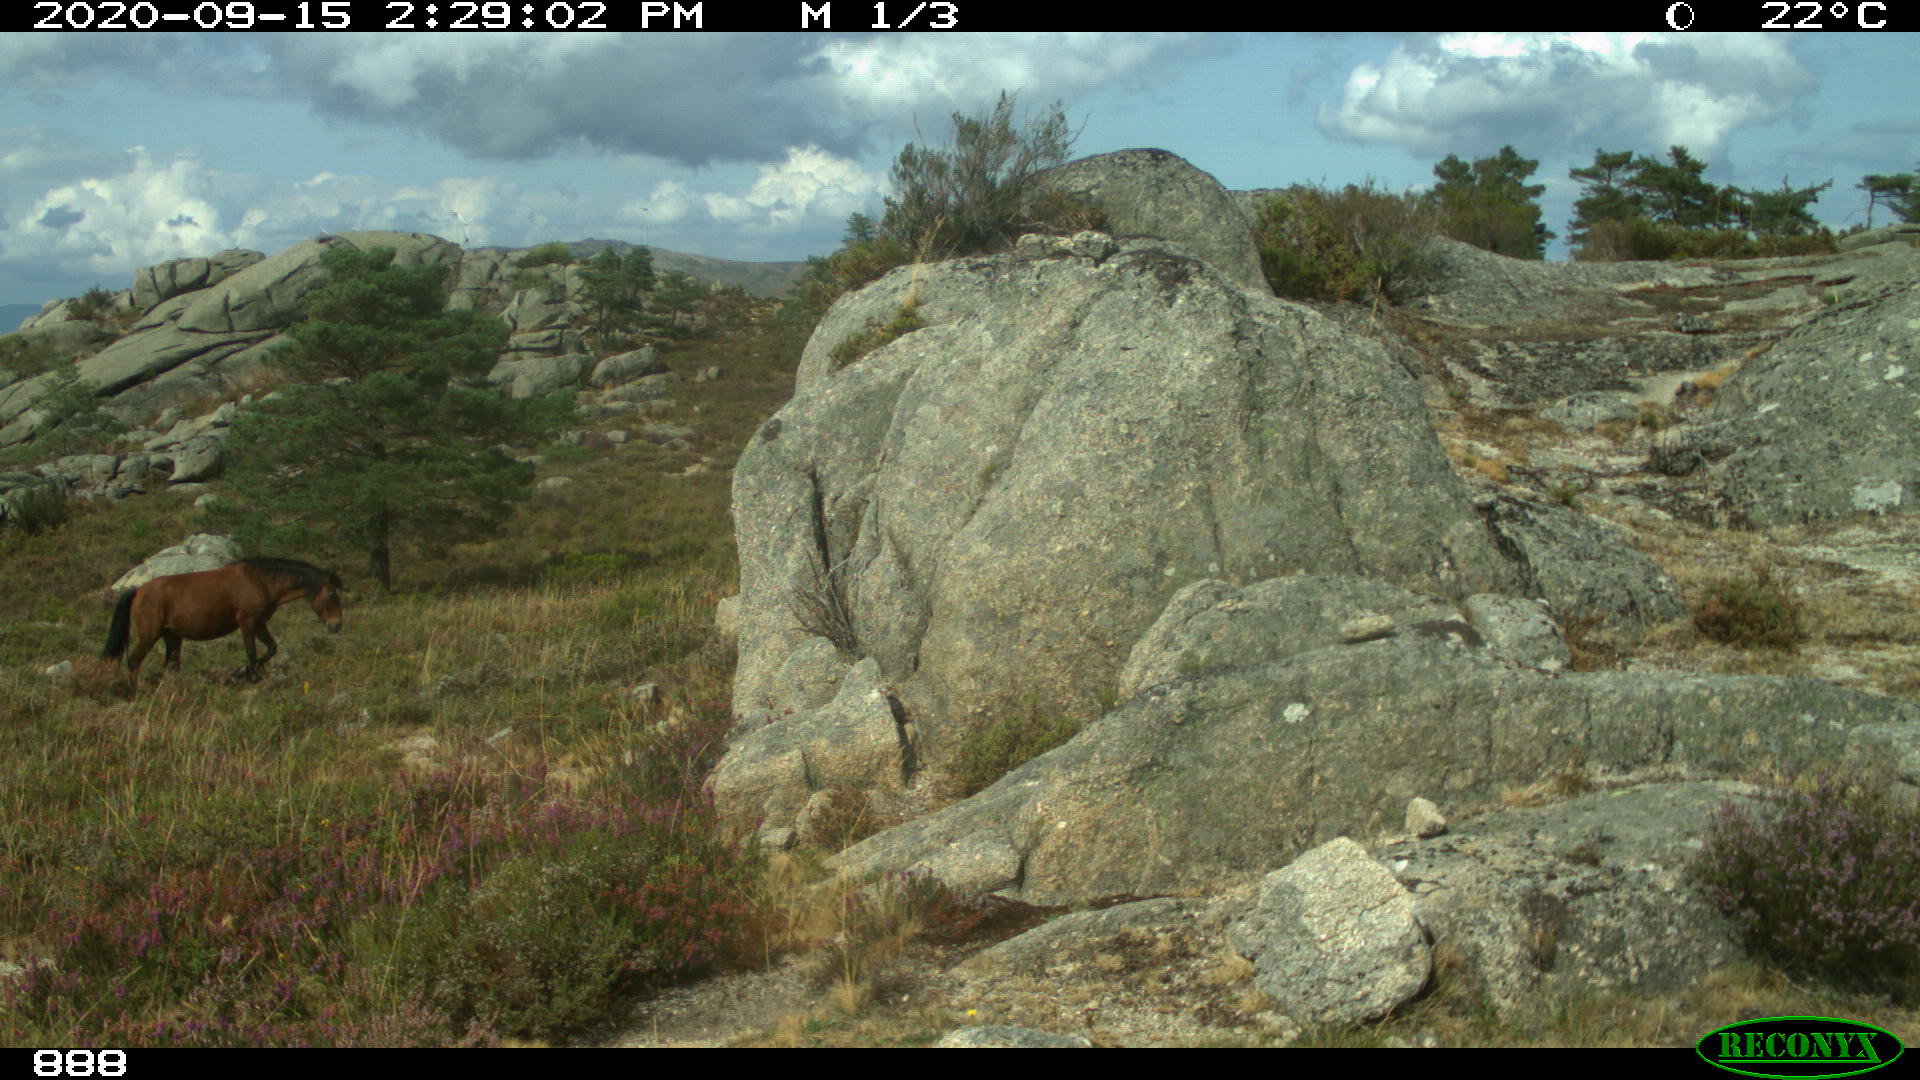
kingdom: Animalia
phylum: Chordata
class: Mammalia
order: Perissodactyla
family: Equidae
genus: Equus
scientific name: Equus caballus
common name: Horse
